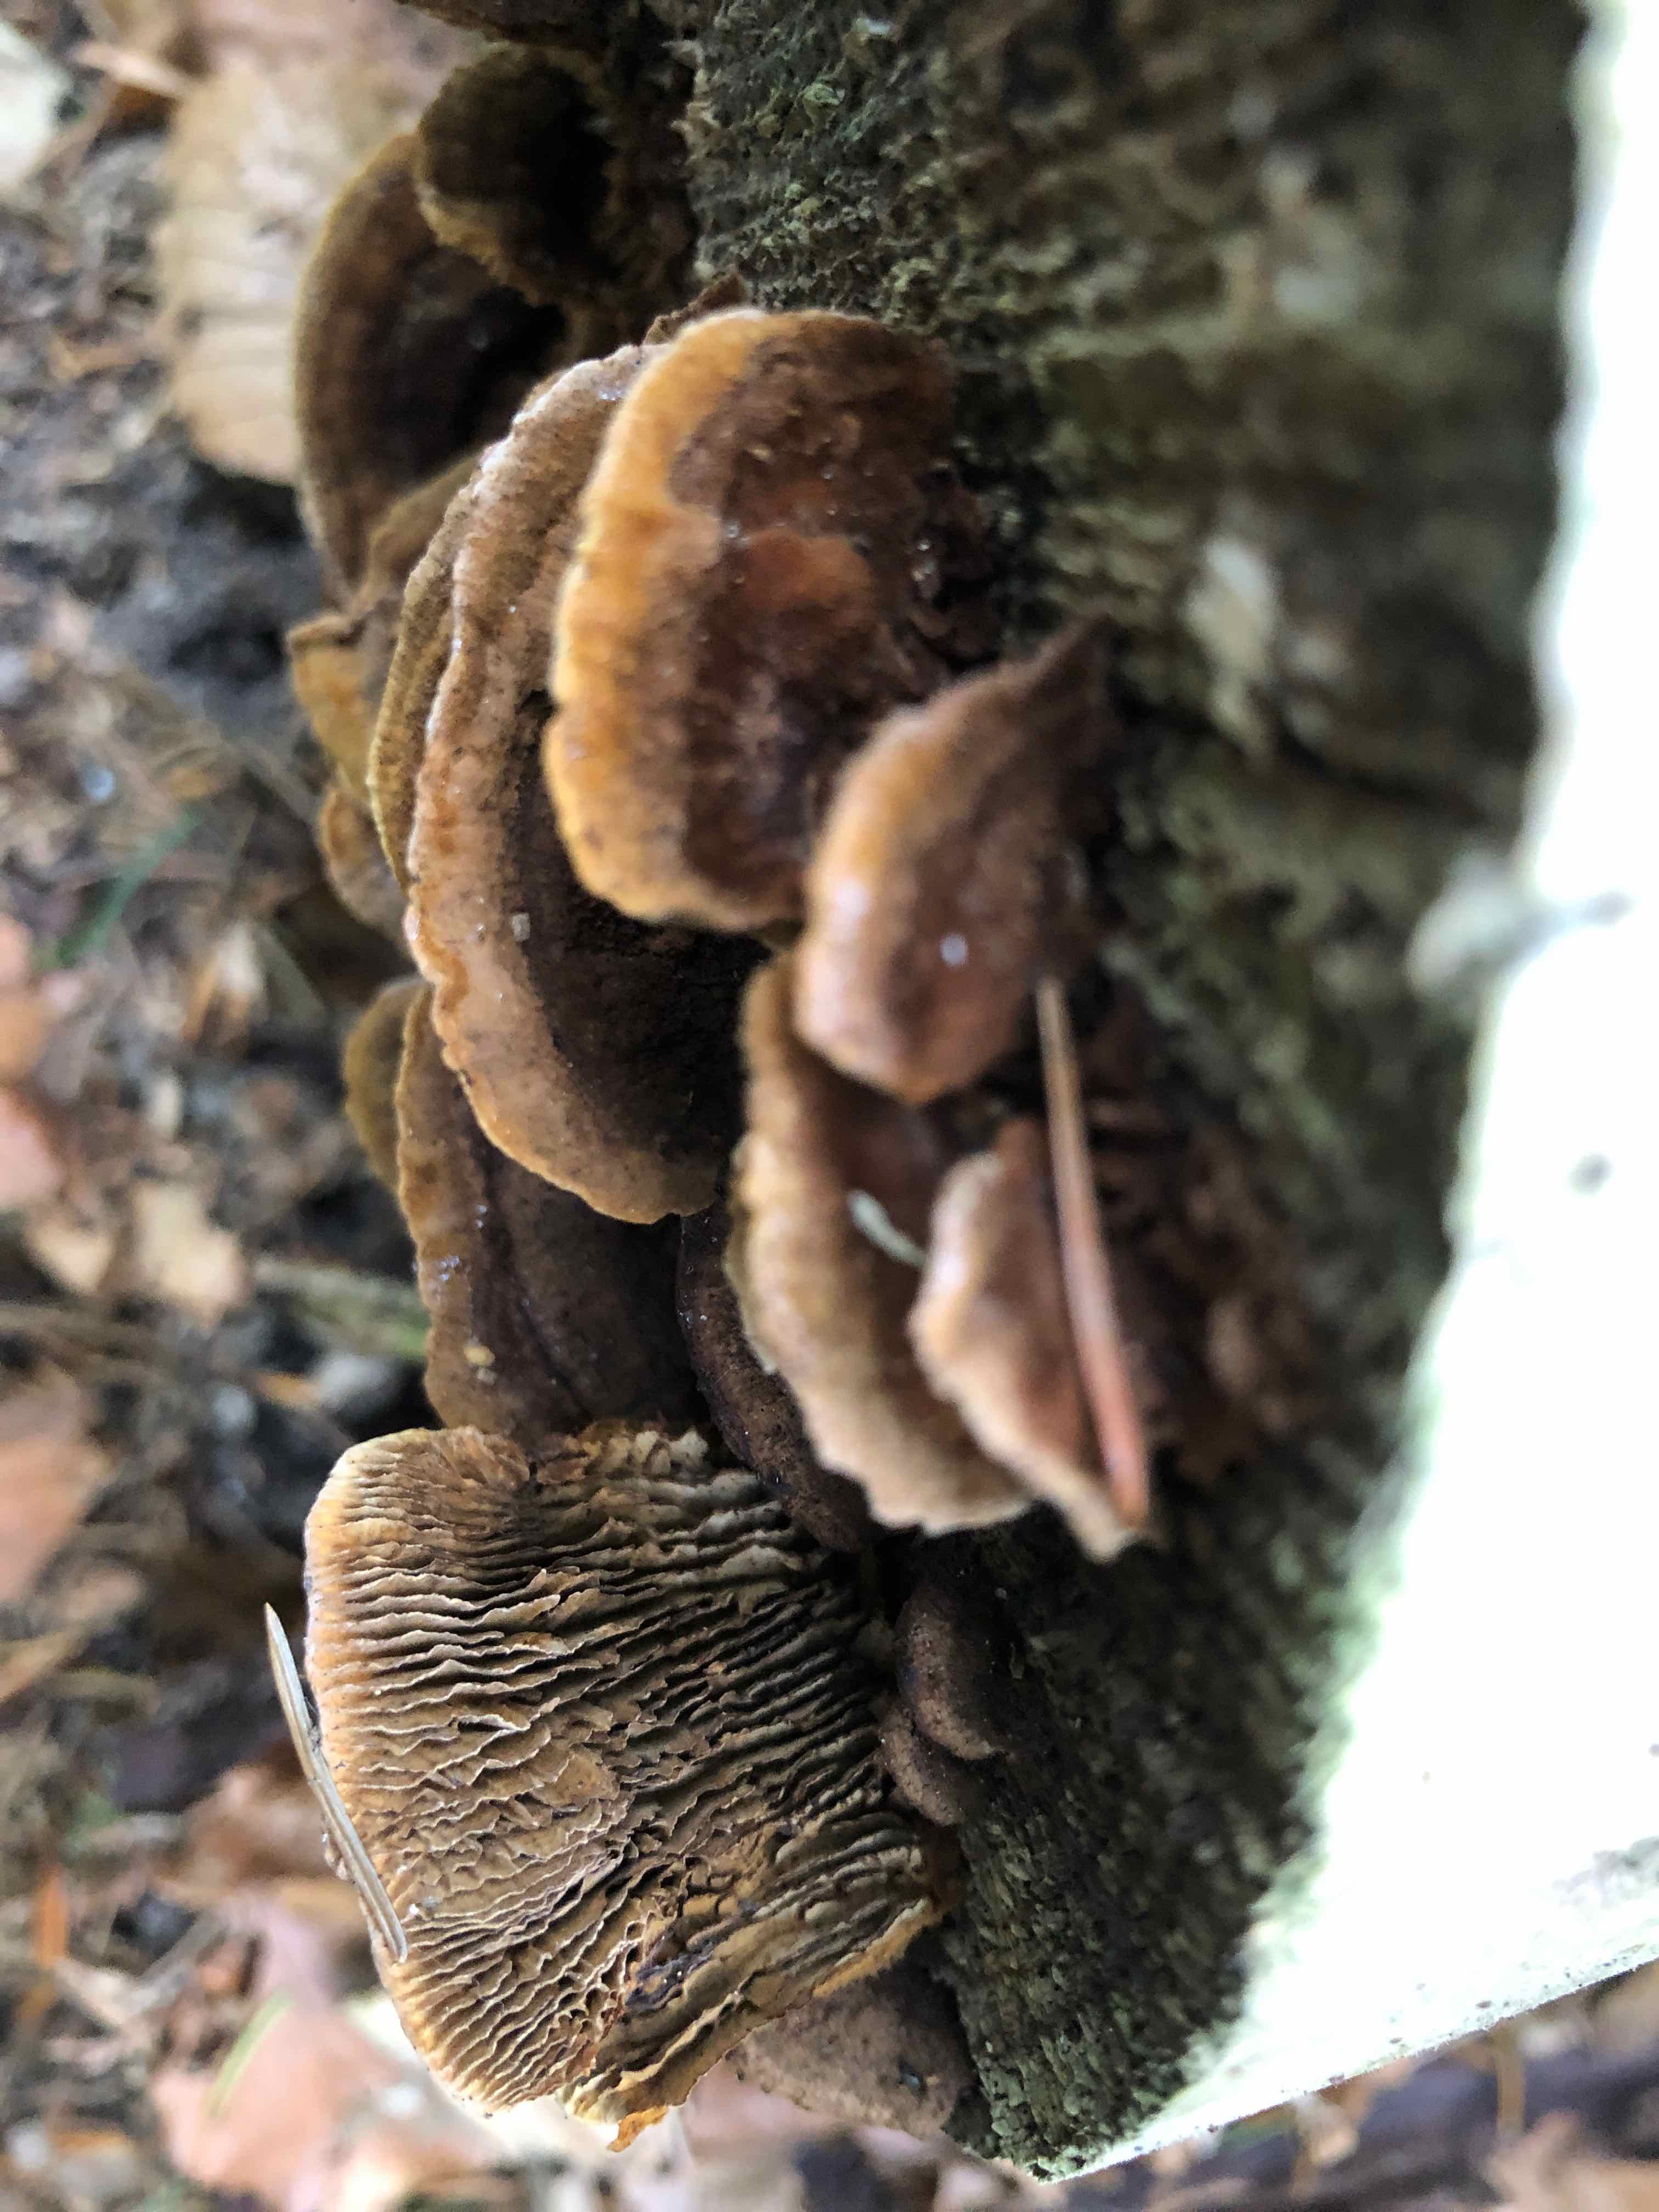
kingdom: Fungi
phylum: Basidiomycota
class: Agaricomycetes
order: Gloeophyllales
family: Gloeophyllaceae
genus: Gloeophyllum
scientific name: Gloeophyllum sepiarium
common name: fyrre-korkhat
